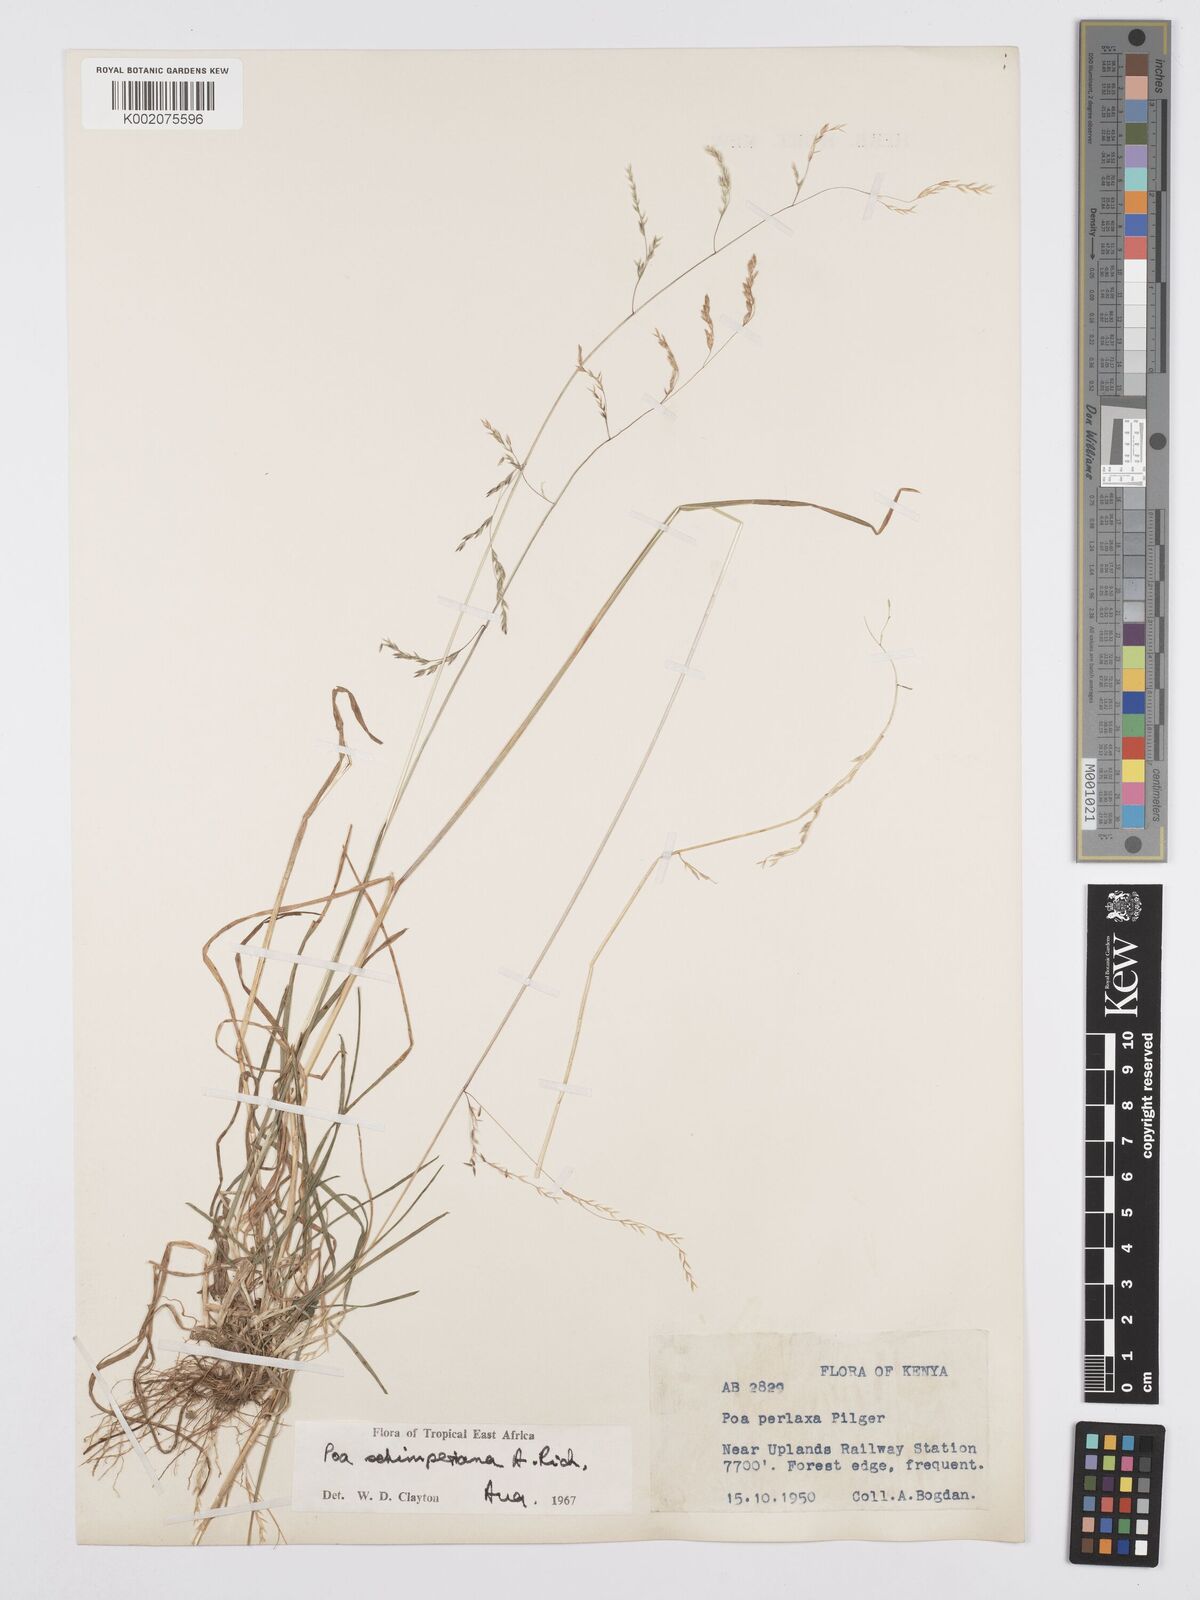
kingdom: Plantae
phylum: Tracheophyta
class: Liliopsida
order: Poales
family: Poaceae
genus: Poa
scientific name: Poa schimperiana
